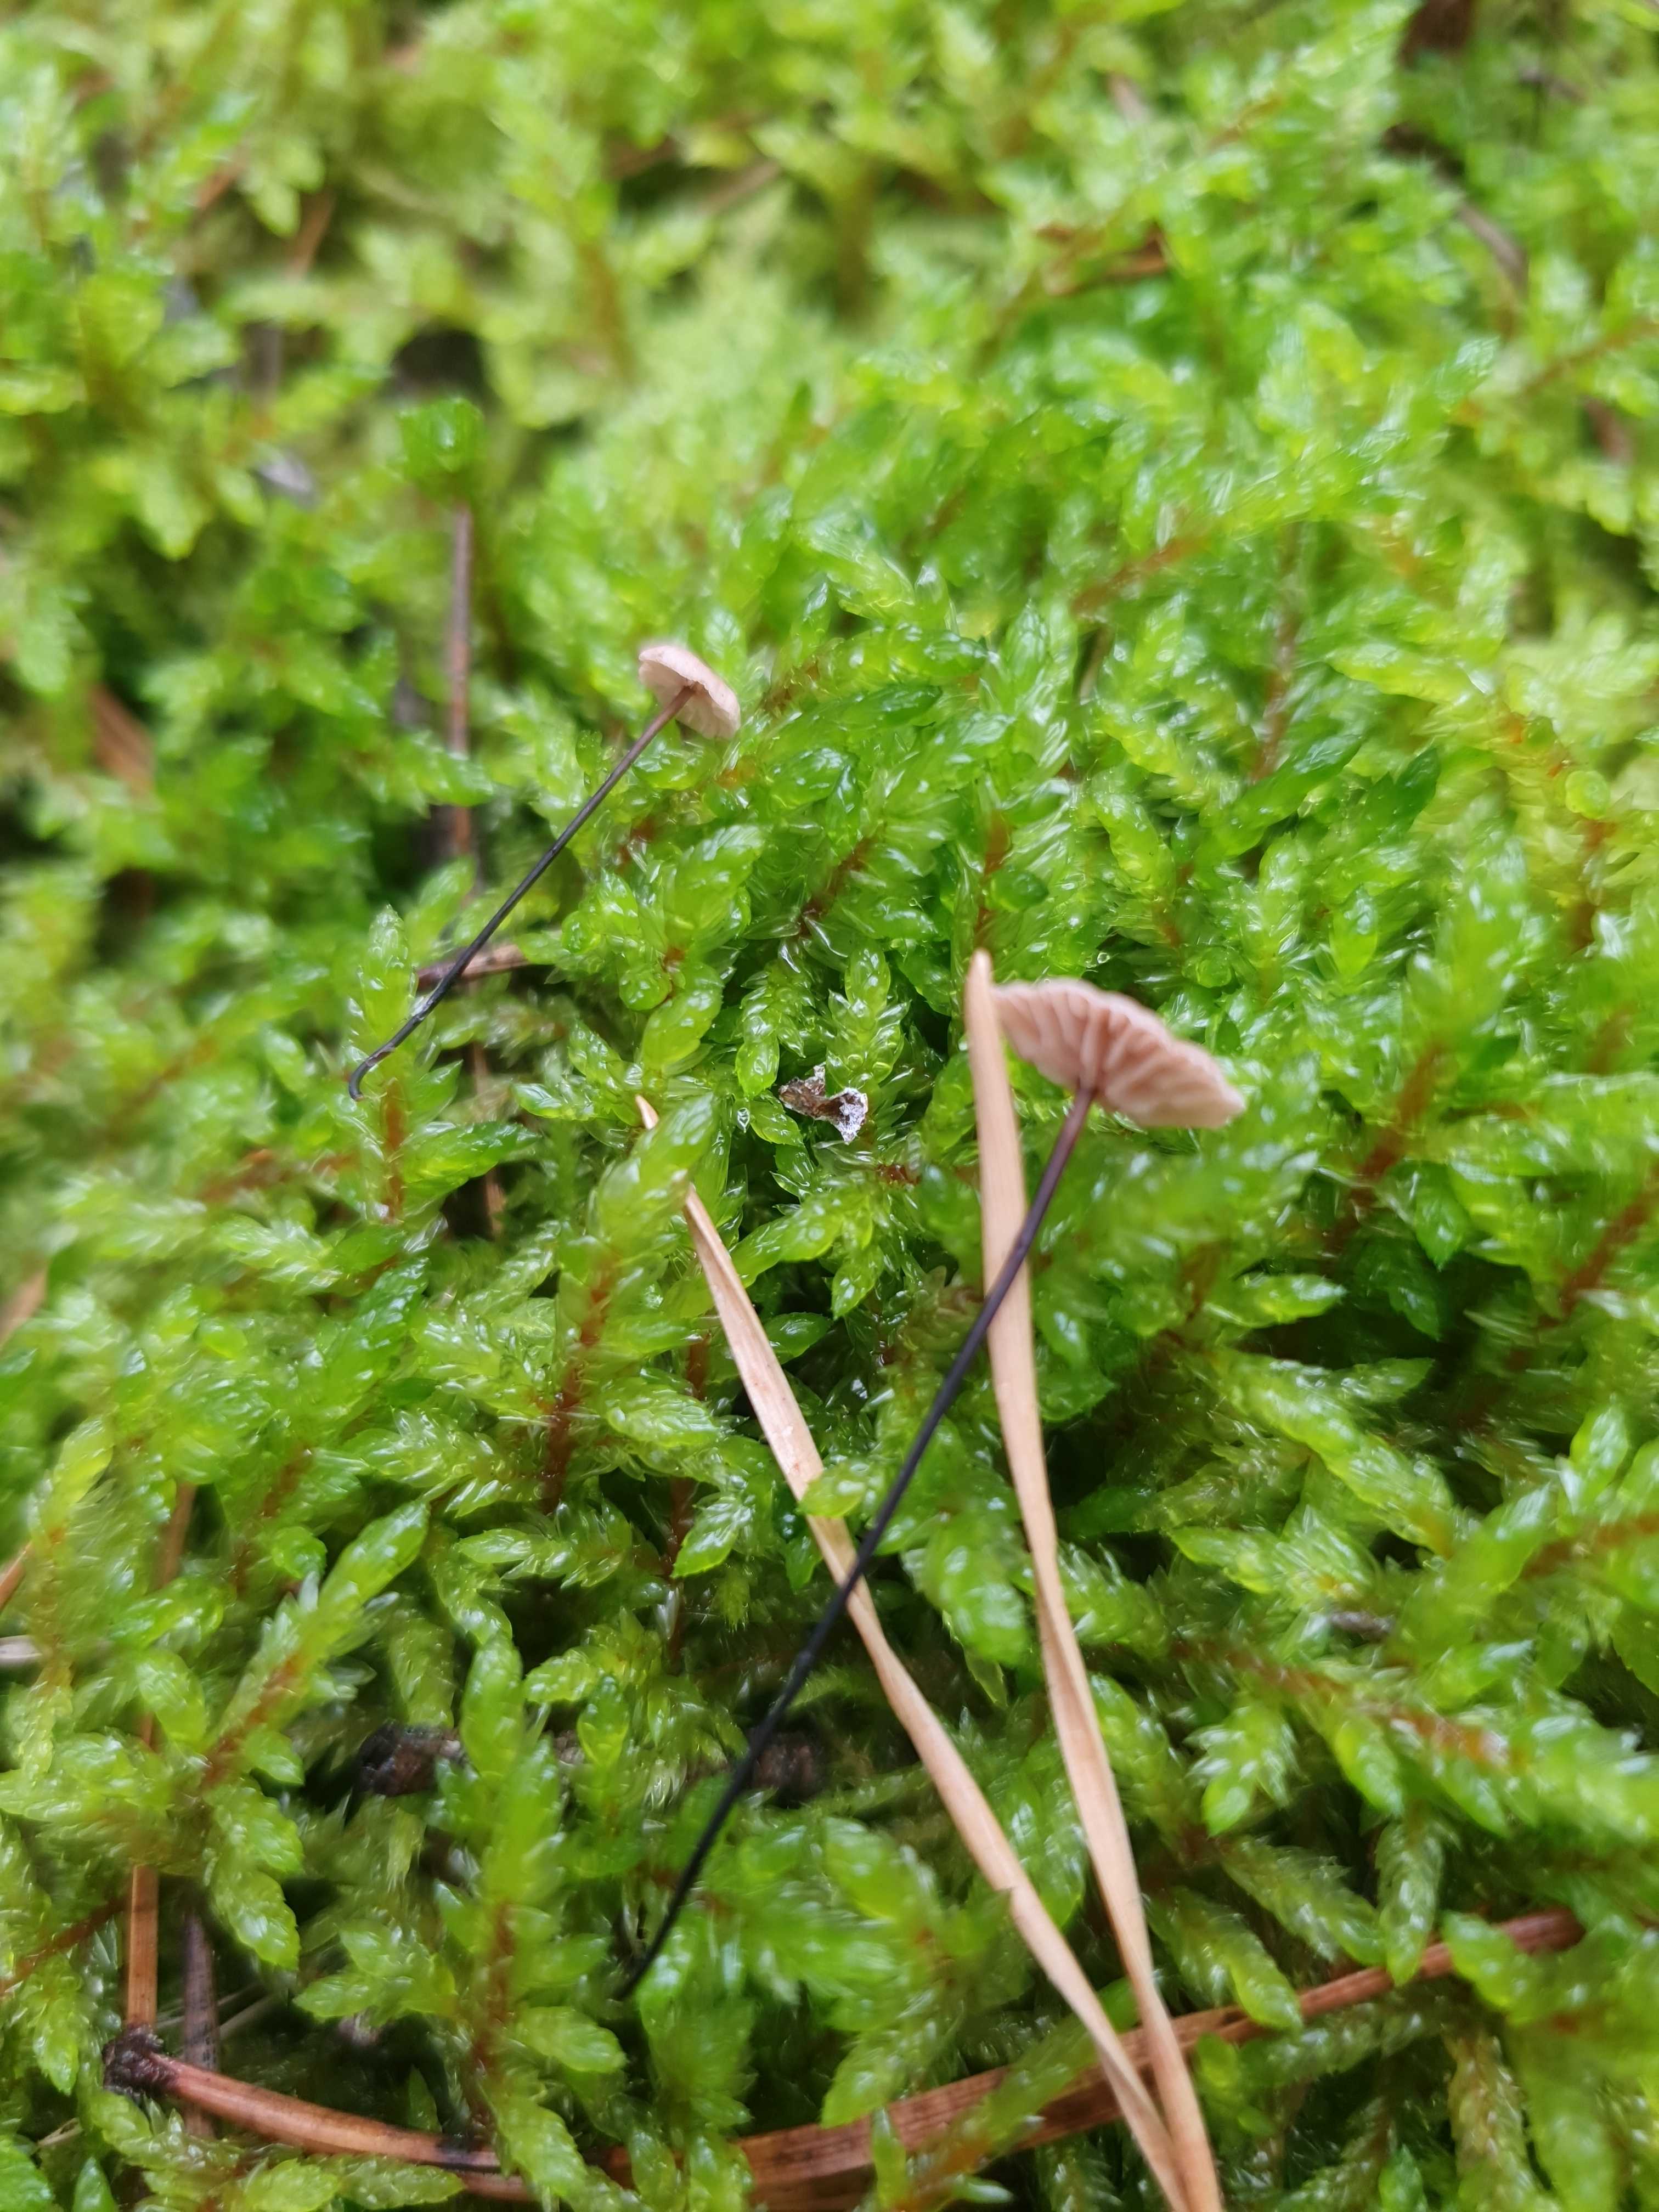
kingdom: Fungi
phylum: Basidiomycota
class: Agaricomycetes
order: Agaricales
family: Omphalotaceae
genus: Gymnopus
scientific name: Gymnopus androsaceus
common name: trådstokket fladhat
